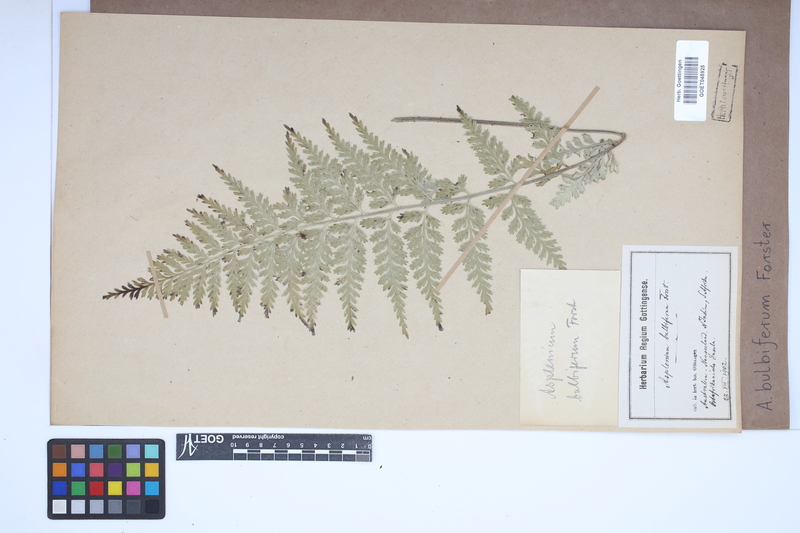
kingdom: Plantae
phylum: Tracheophyta
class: Polypodiopsida
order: Polypodiales
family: Aspleniaceae
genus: Asplenium
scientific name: Asplenium bulbiferum
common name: Mother fern
